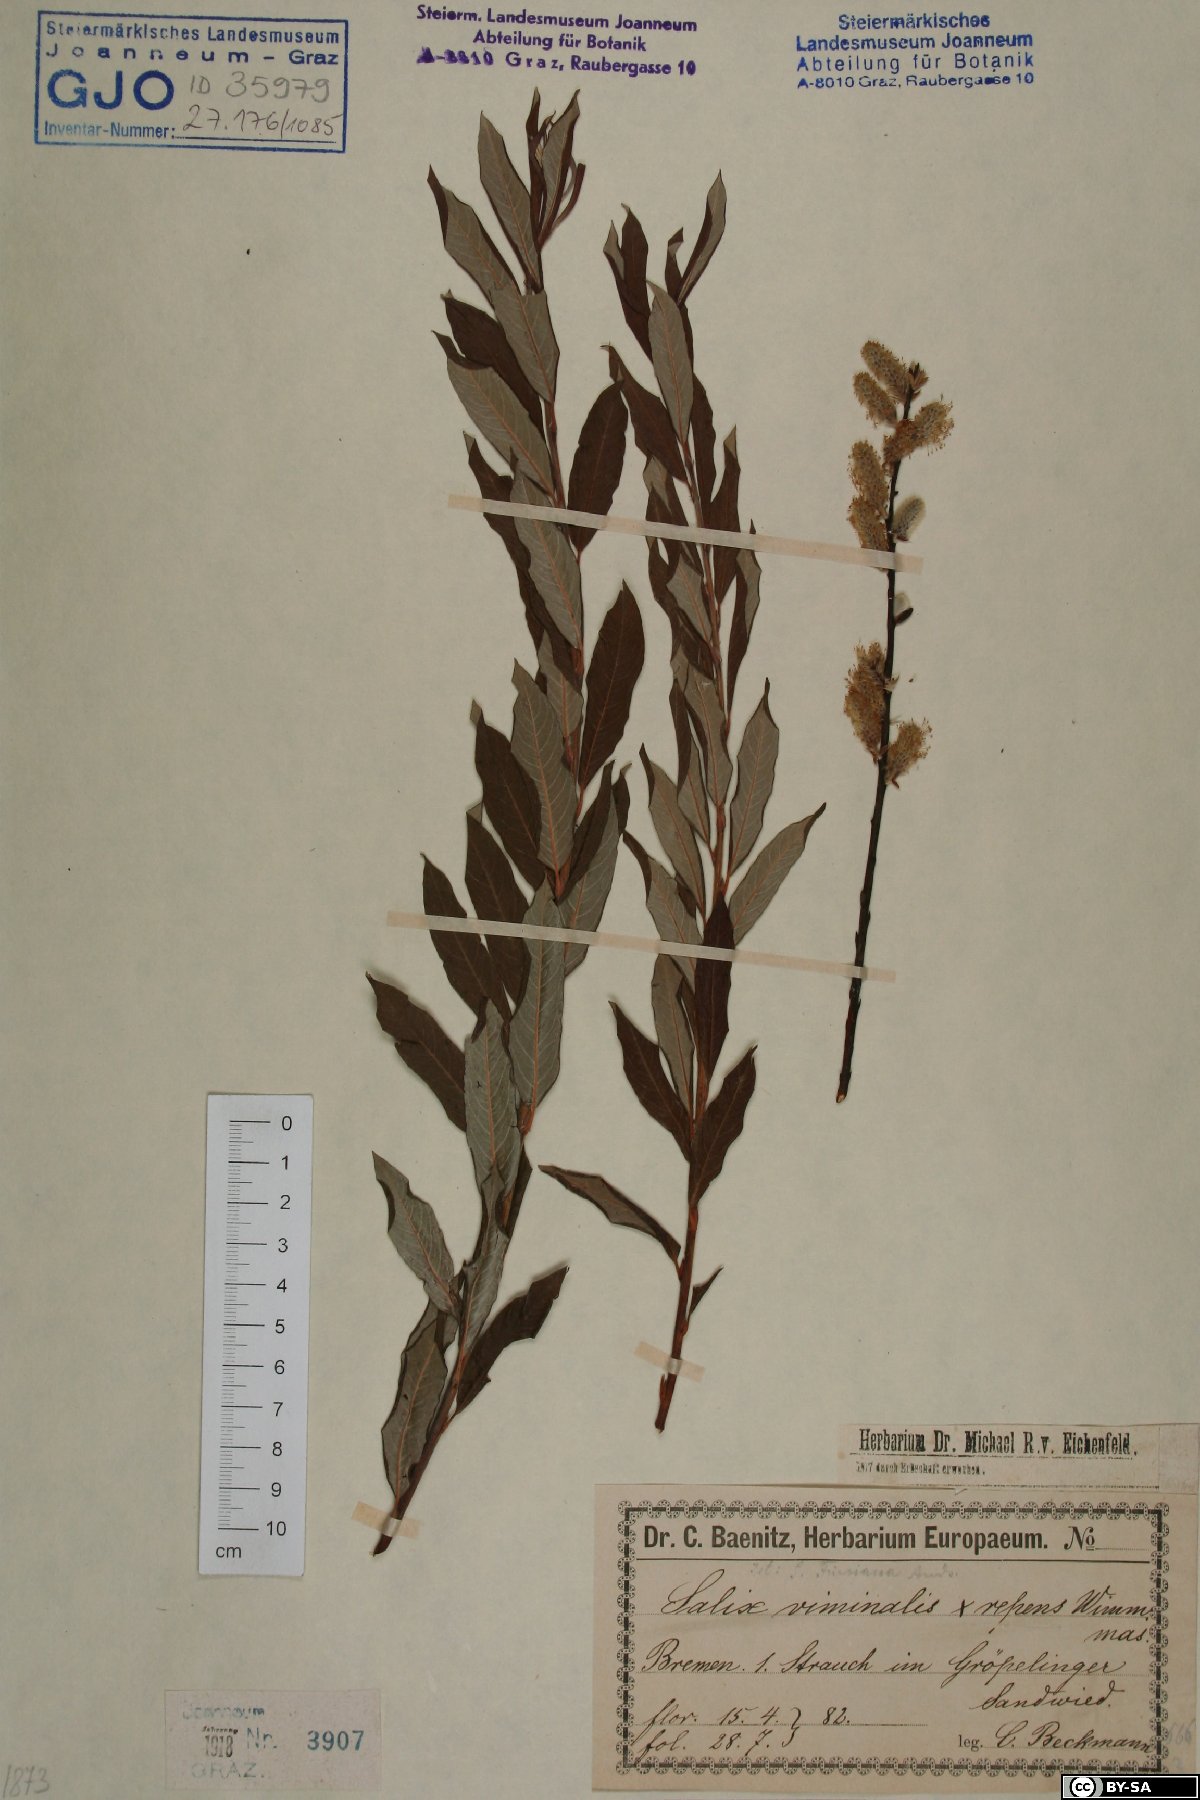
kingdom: Plantae
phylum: Tracheophyta
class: Magnoliopsida
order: Malpighiales
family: Salicaceae
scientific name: Salicaceae
